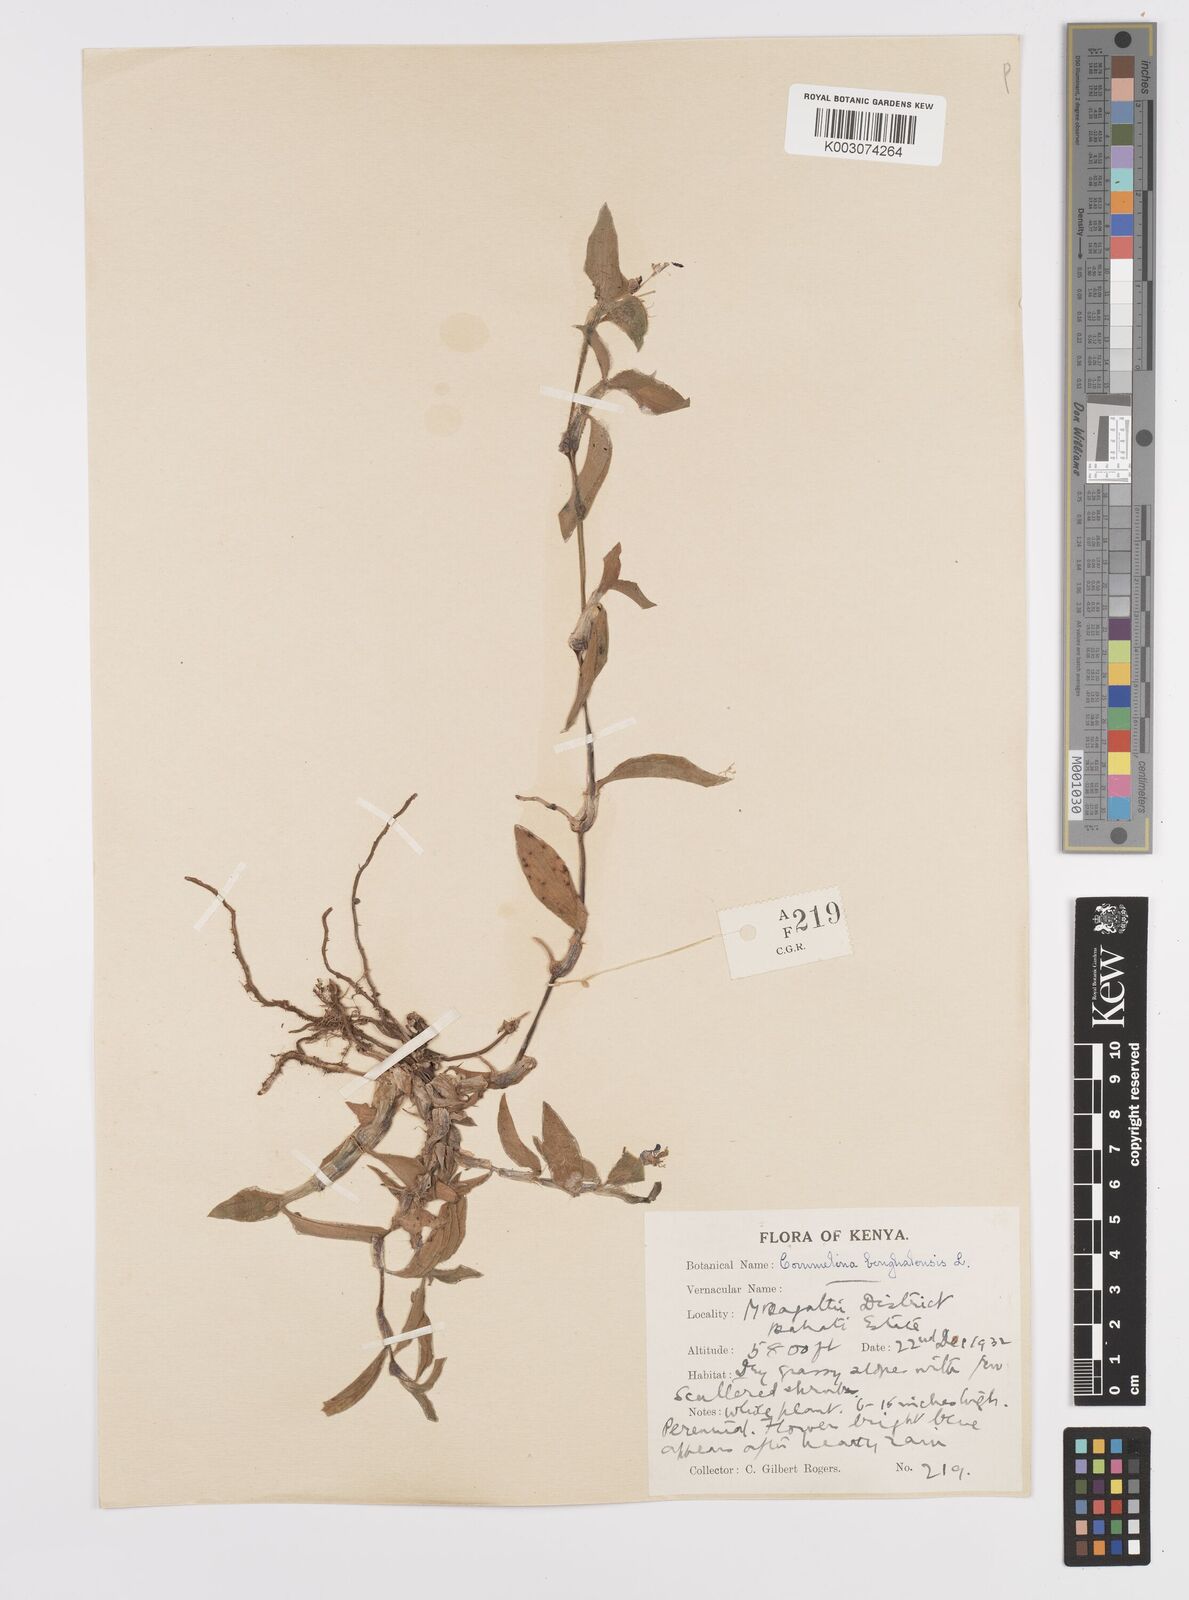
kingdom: Plantae
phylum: Tracheophyta
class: Liliopsida
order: Commelinales
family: Commelinaceae
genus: Commelina
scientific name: Commelina benghalensis
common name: Jio
